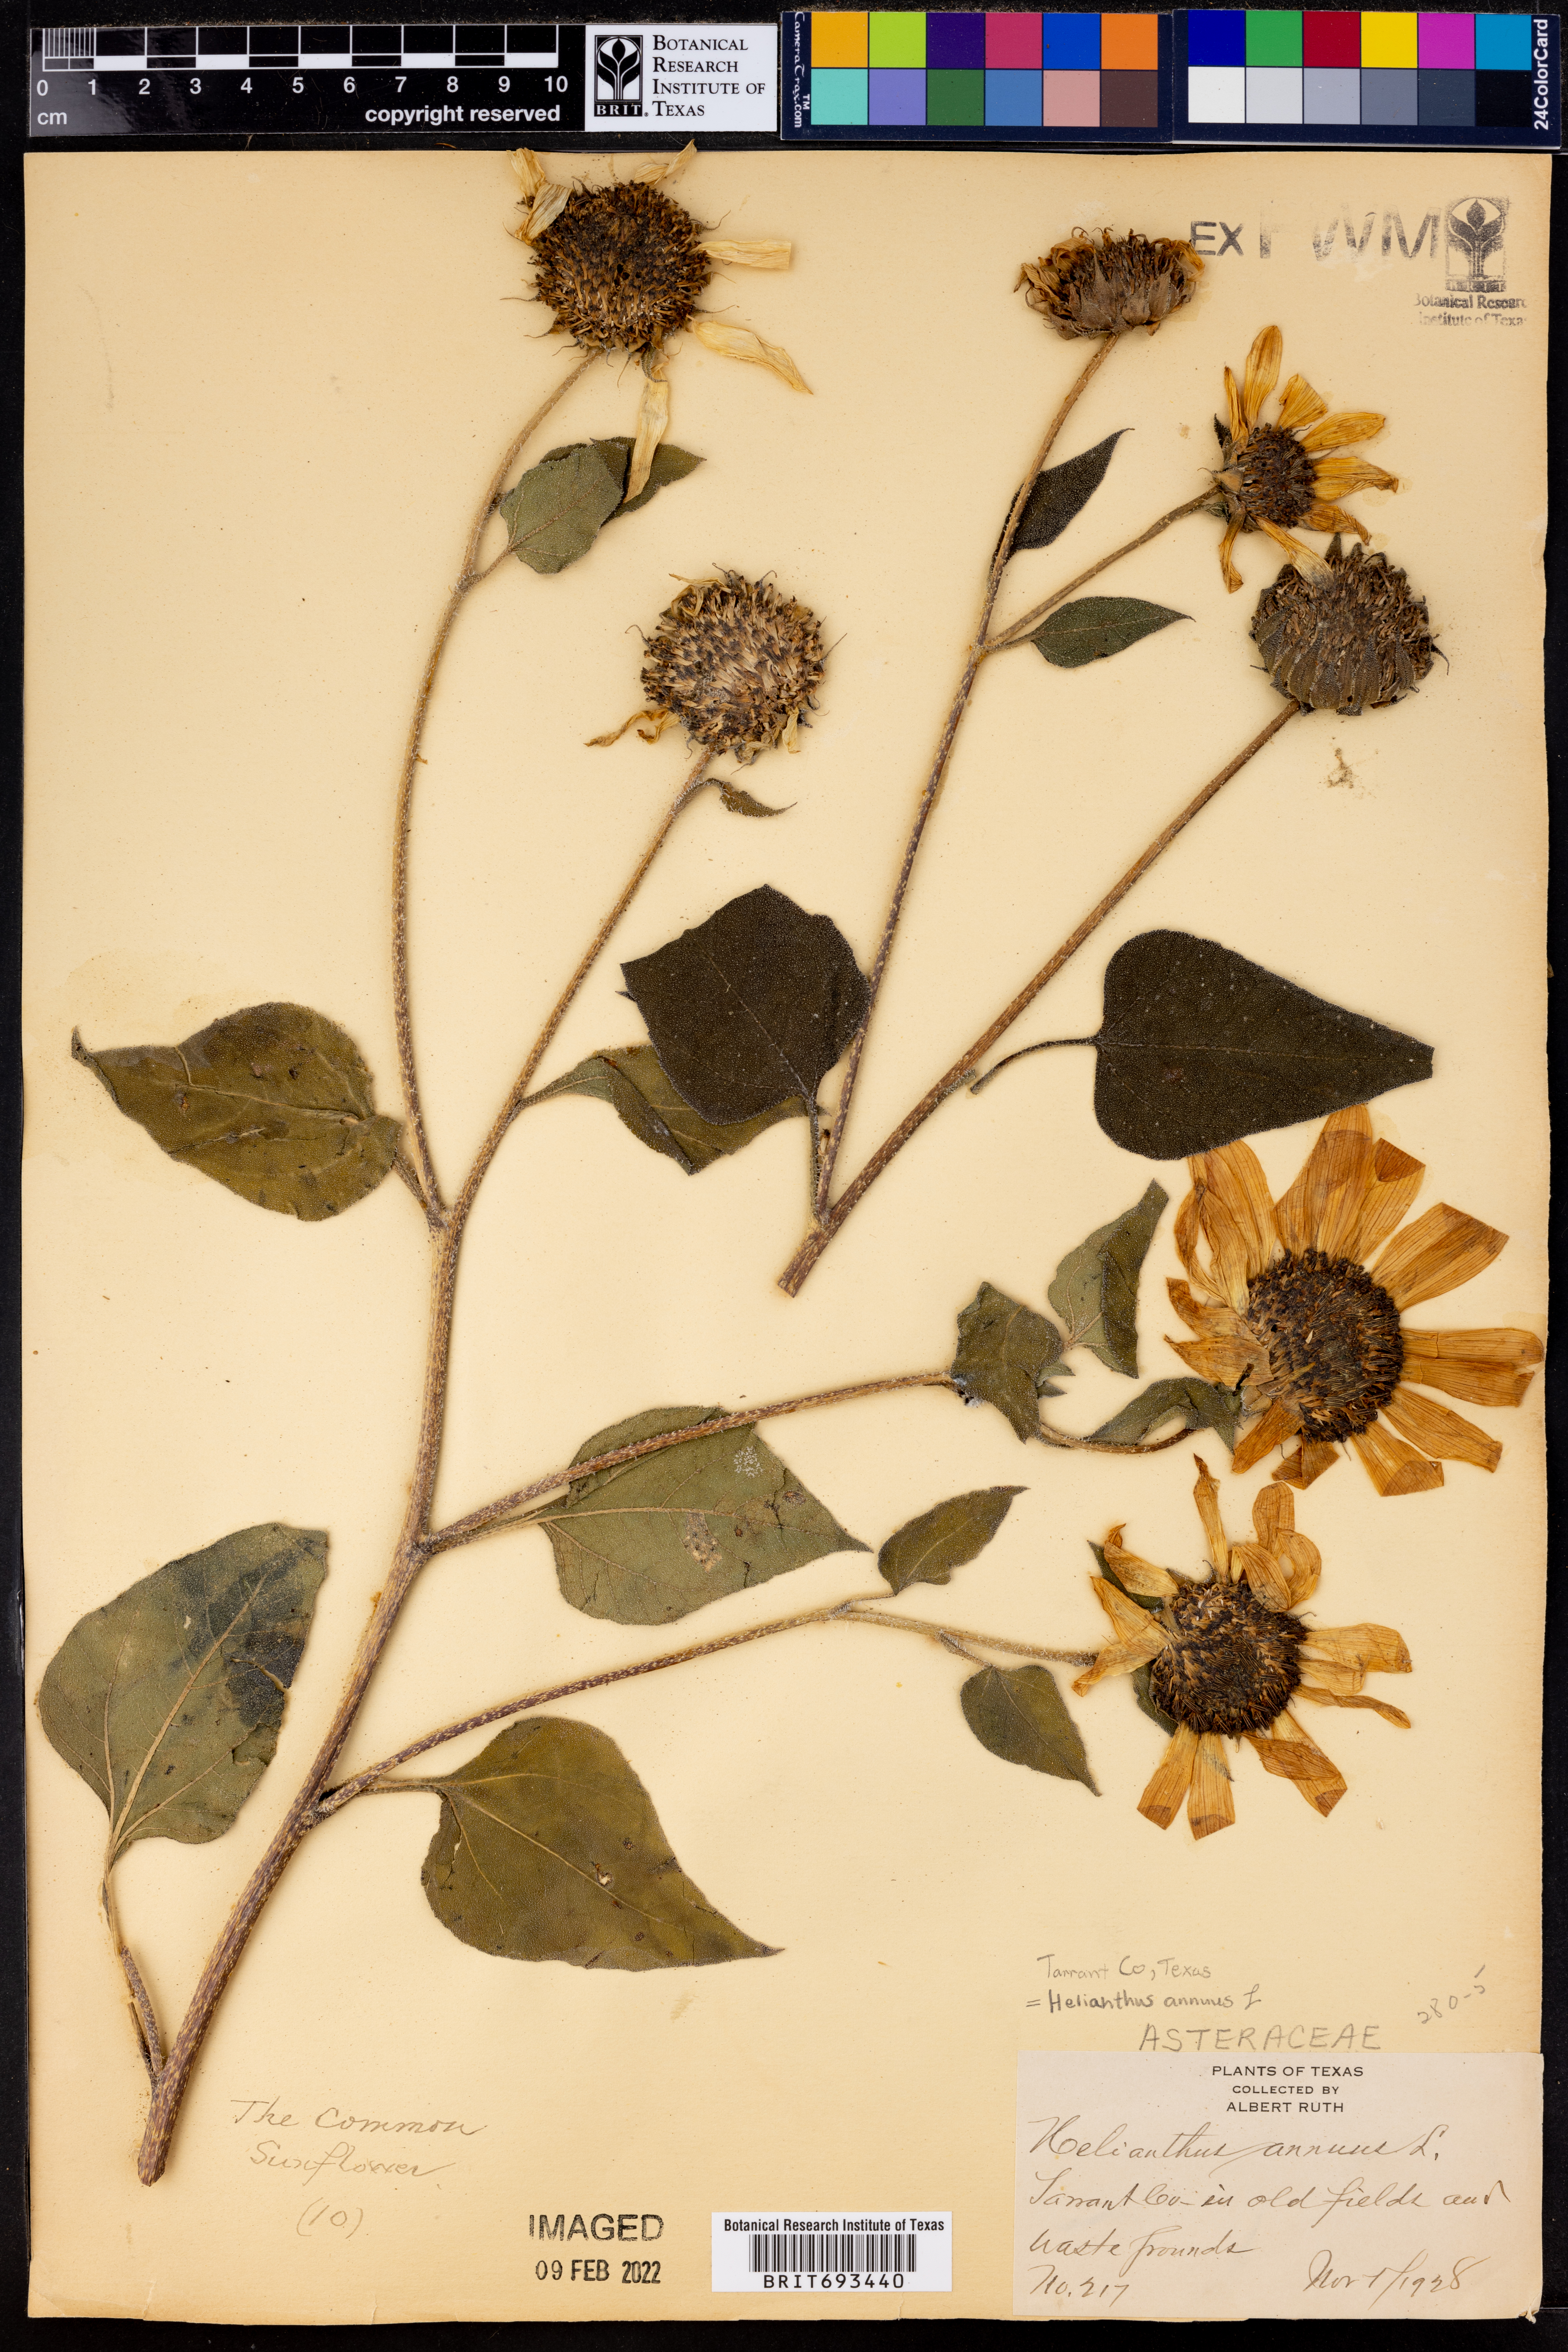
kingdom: Plantae
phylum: Tracheophyta
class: Magnoliopsida
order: Asterales
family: Asteraceae
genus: Helianthus
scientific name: Helianthus annuus
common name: Sunflower
